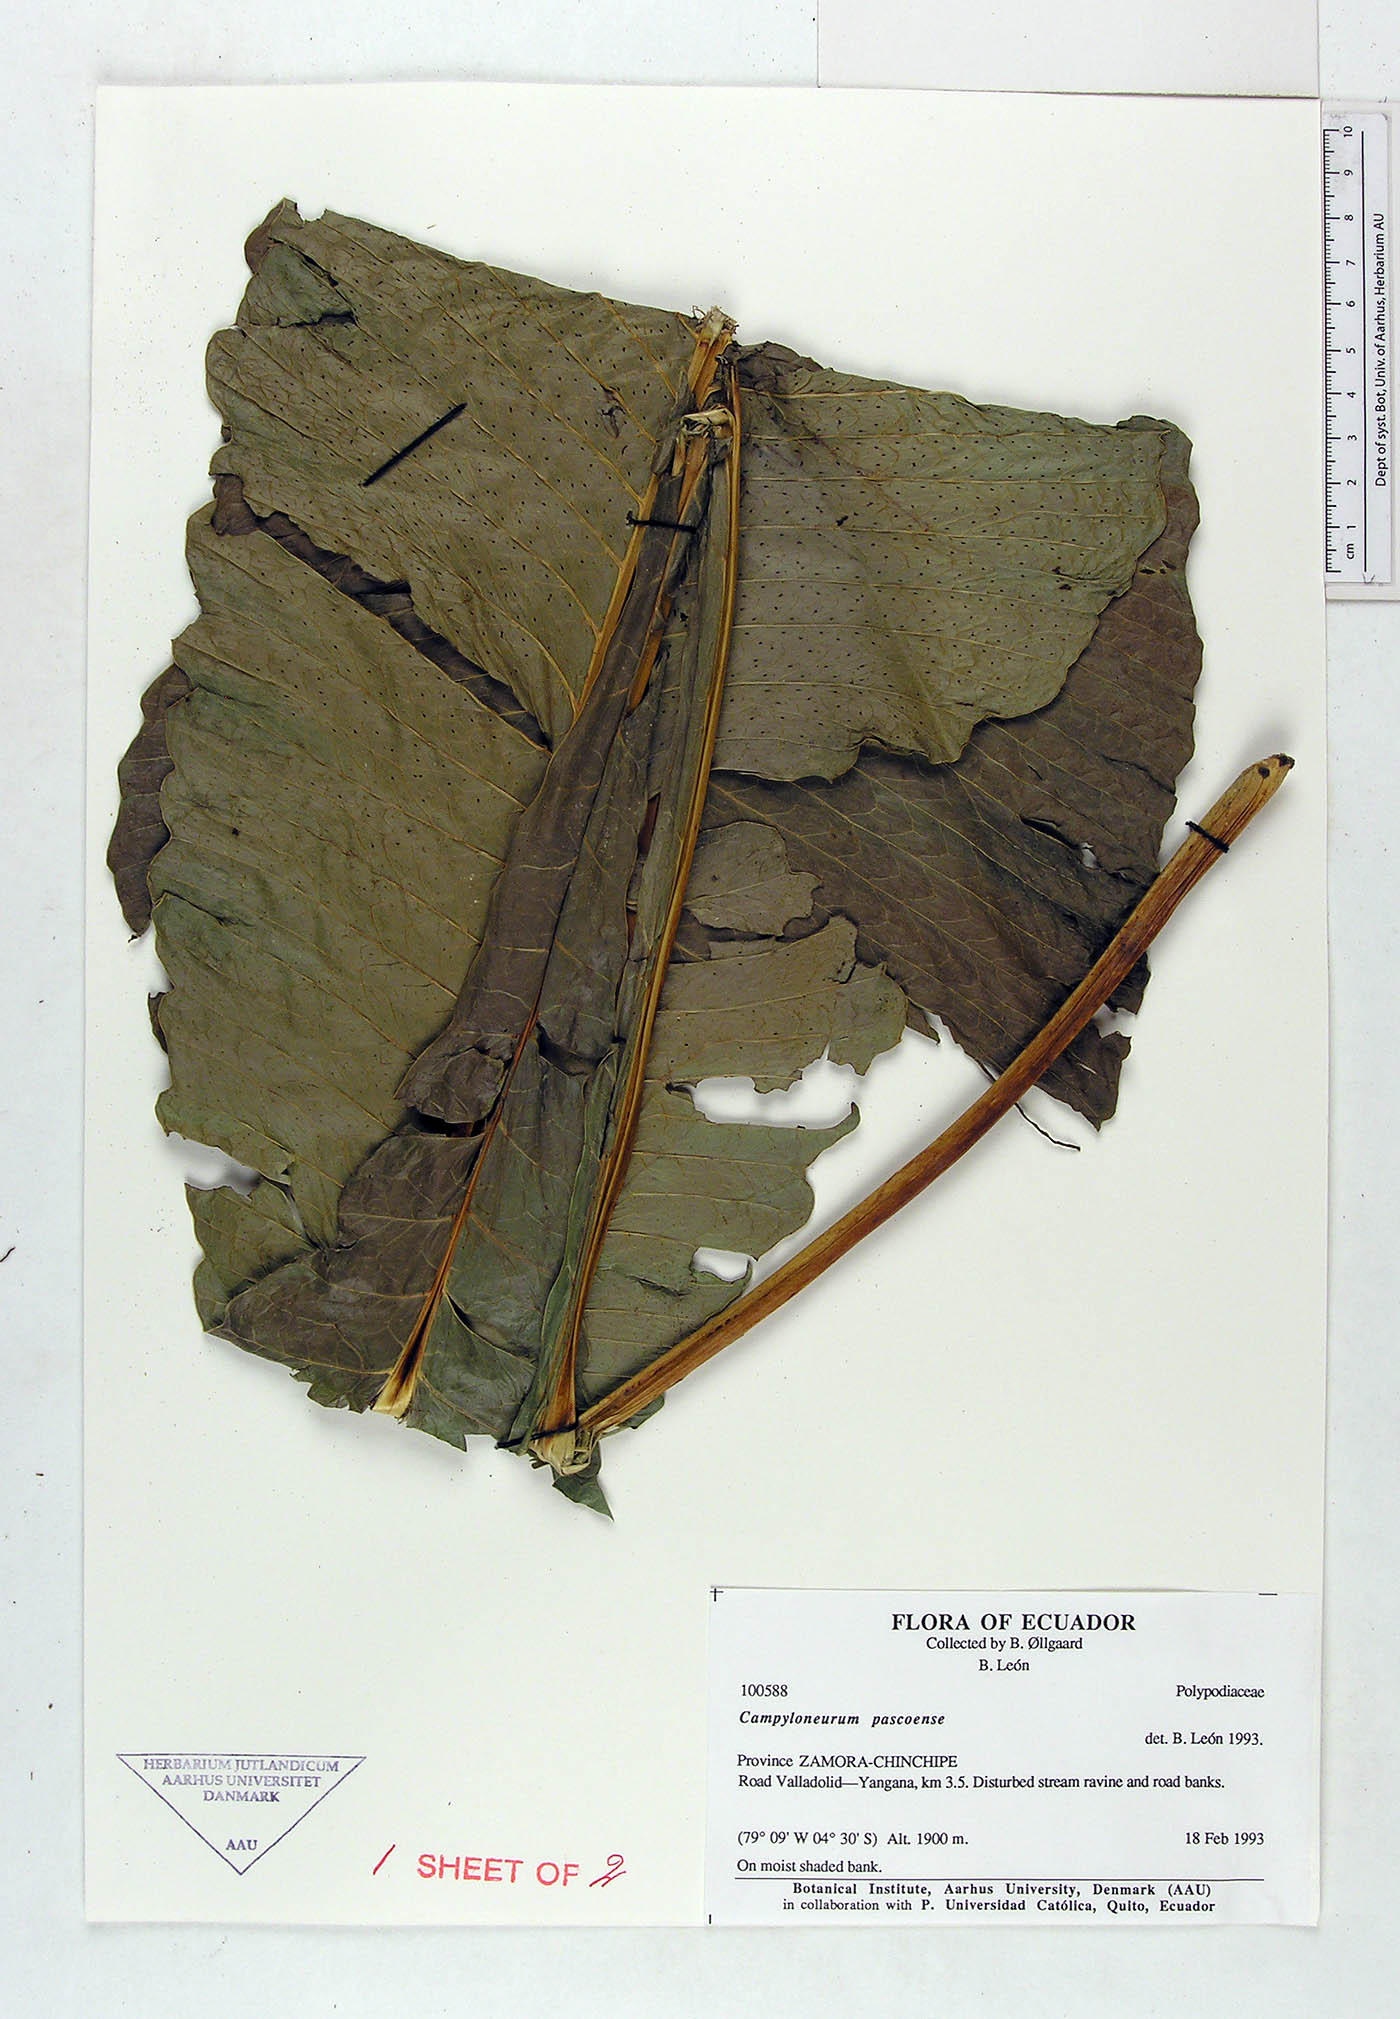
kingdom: Plantae
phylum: Tracheophyta
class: Polypodiopsida
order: Polypodiales
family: Polypodiaceae
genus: Campyloneurum
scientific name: Campyloneurum pascoense
